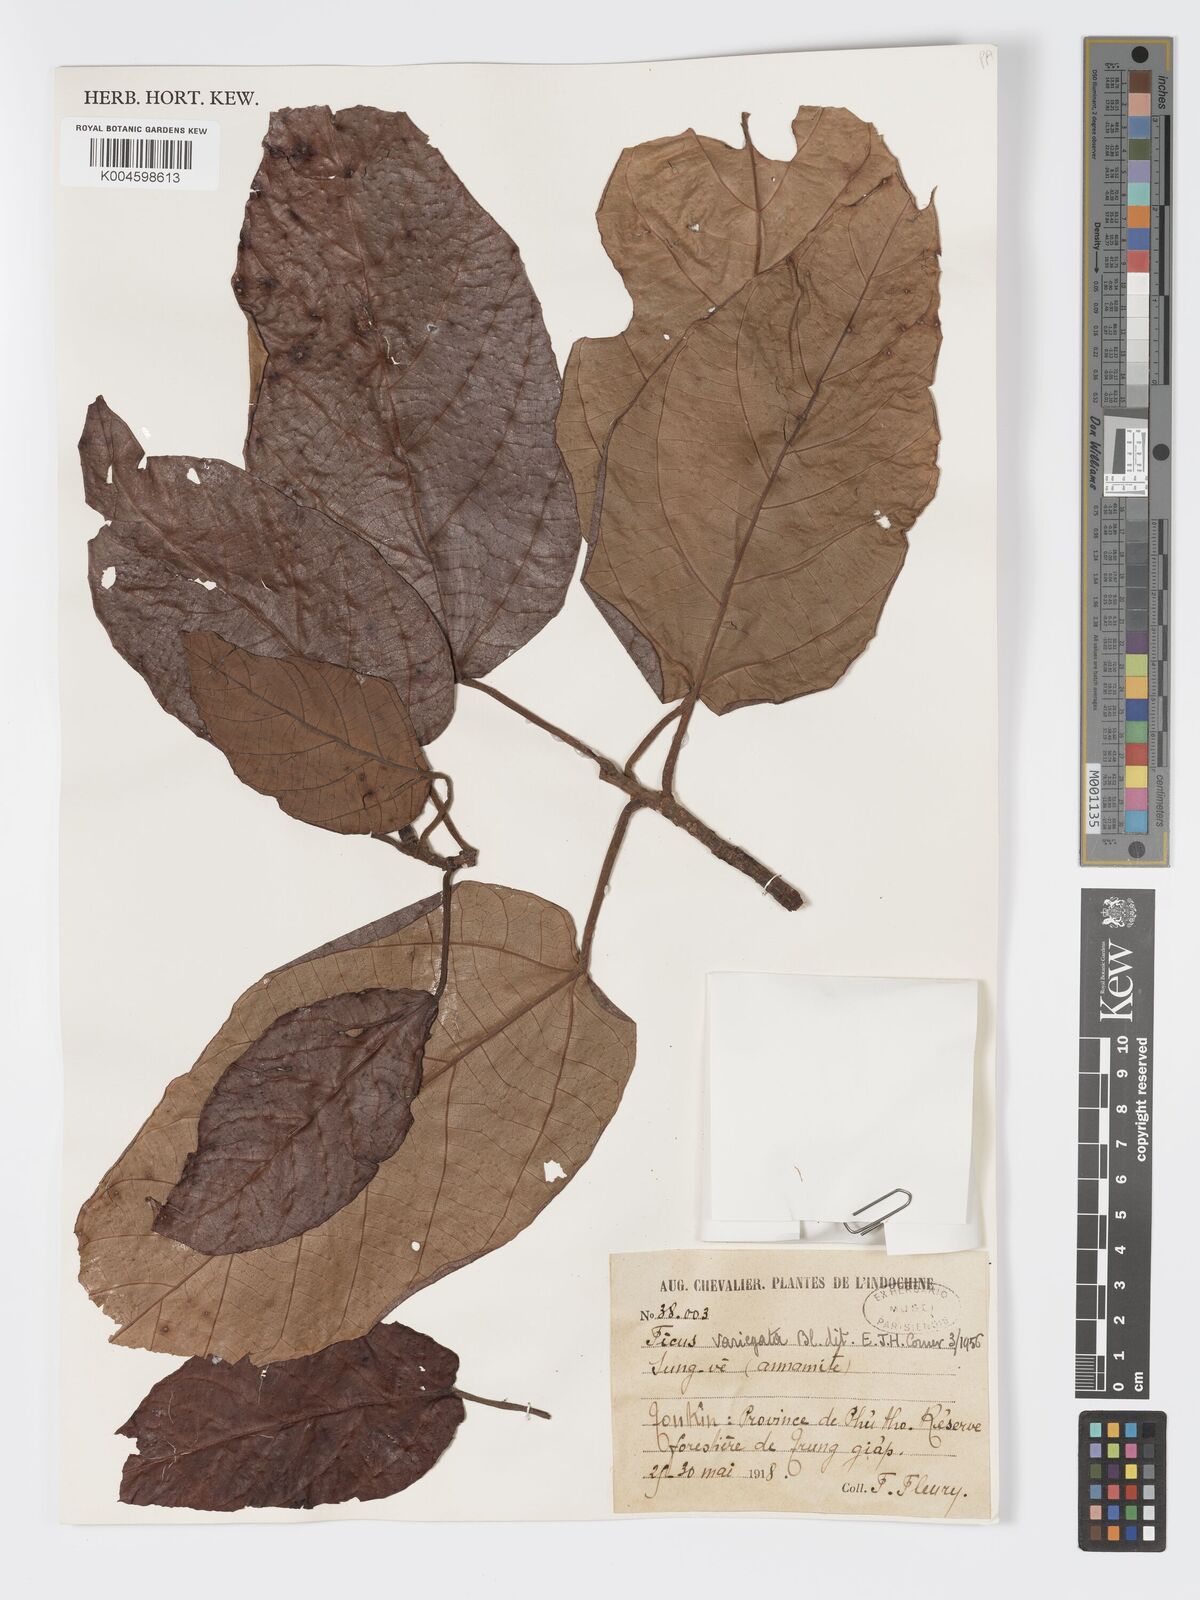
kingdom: Plantae
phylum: Tracheophyta
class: Magnoliopsida
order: Rosales
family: Moraceae
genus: Ficus
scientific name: Ficus variegata
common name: Variegated fig
